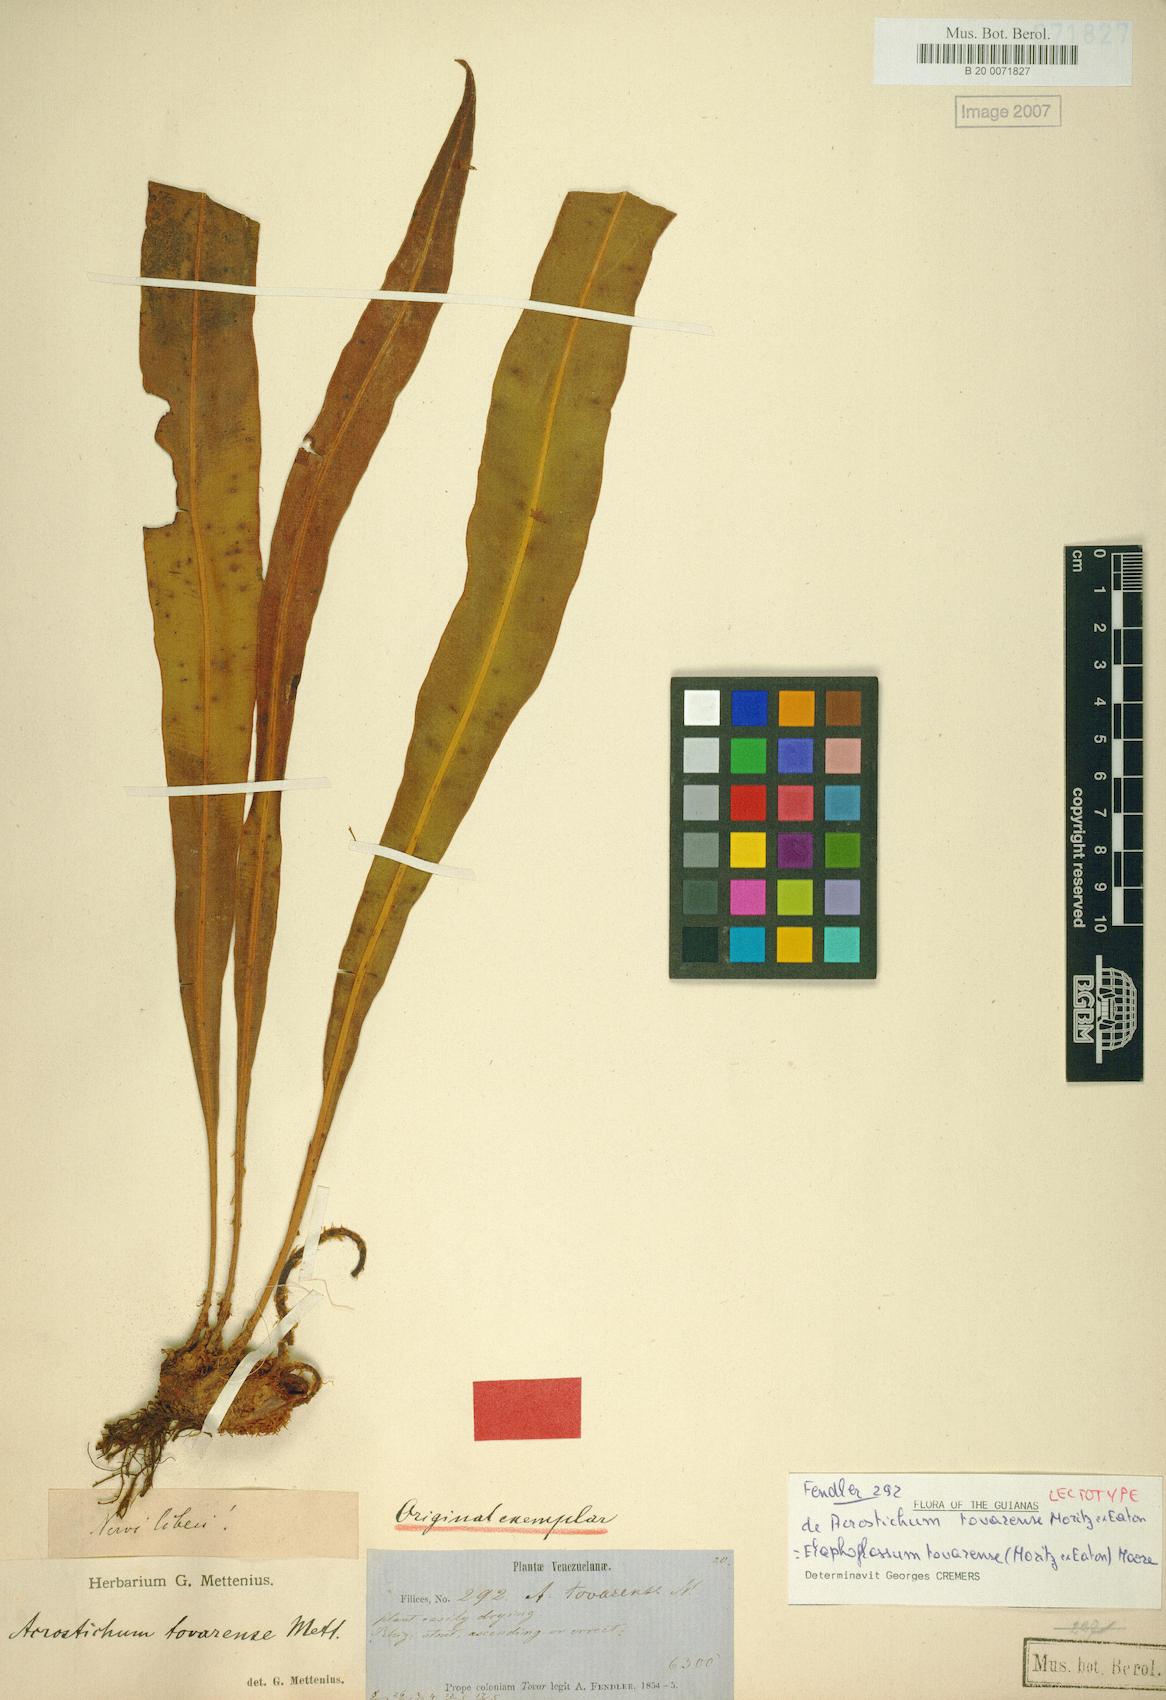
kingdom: Plantae
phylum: Tracheophyta
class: Polypodiopsida
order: Polypodiales
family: Pteridaceae
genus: Acrostichum
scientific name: Acrostichum Elaphoglossum tovarense
